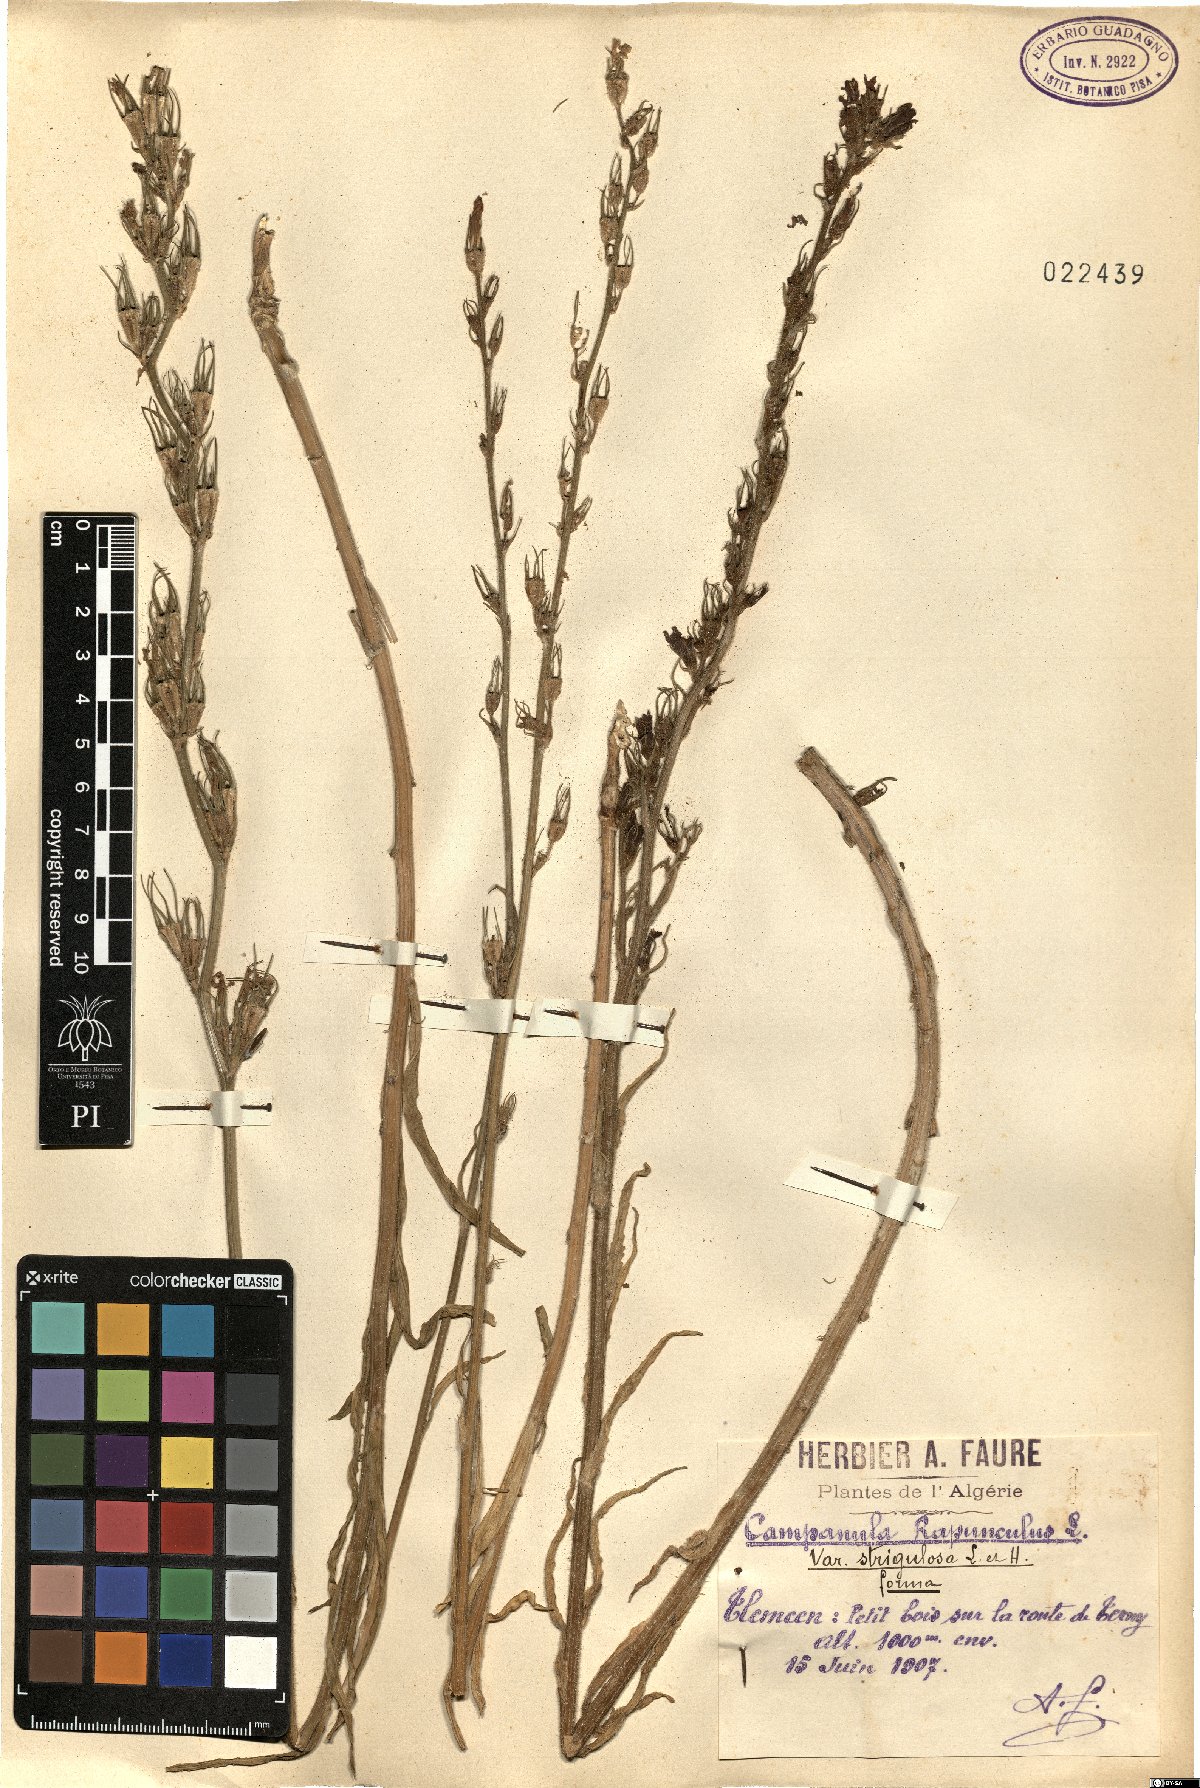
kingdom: Plantae
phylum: Tracheophyta
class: Magnoliopsida
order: Asterales
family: Campanulaceae
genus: Campanula
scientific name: Campanula rapunculus
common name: Rampion bellflower
